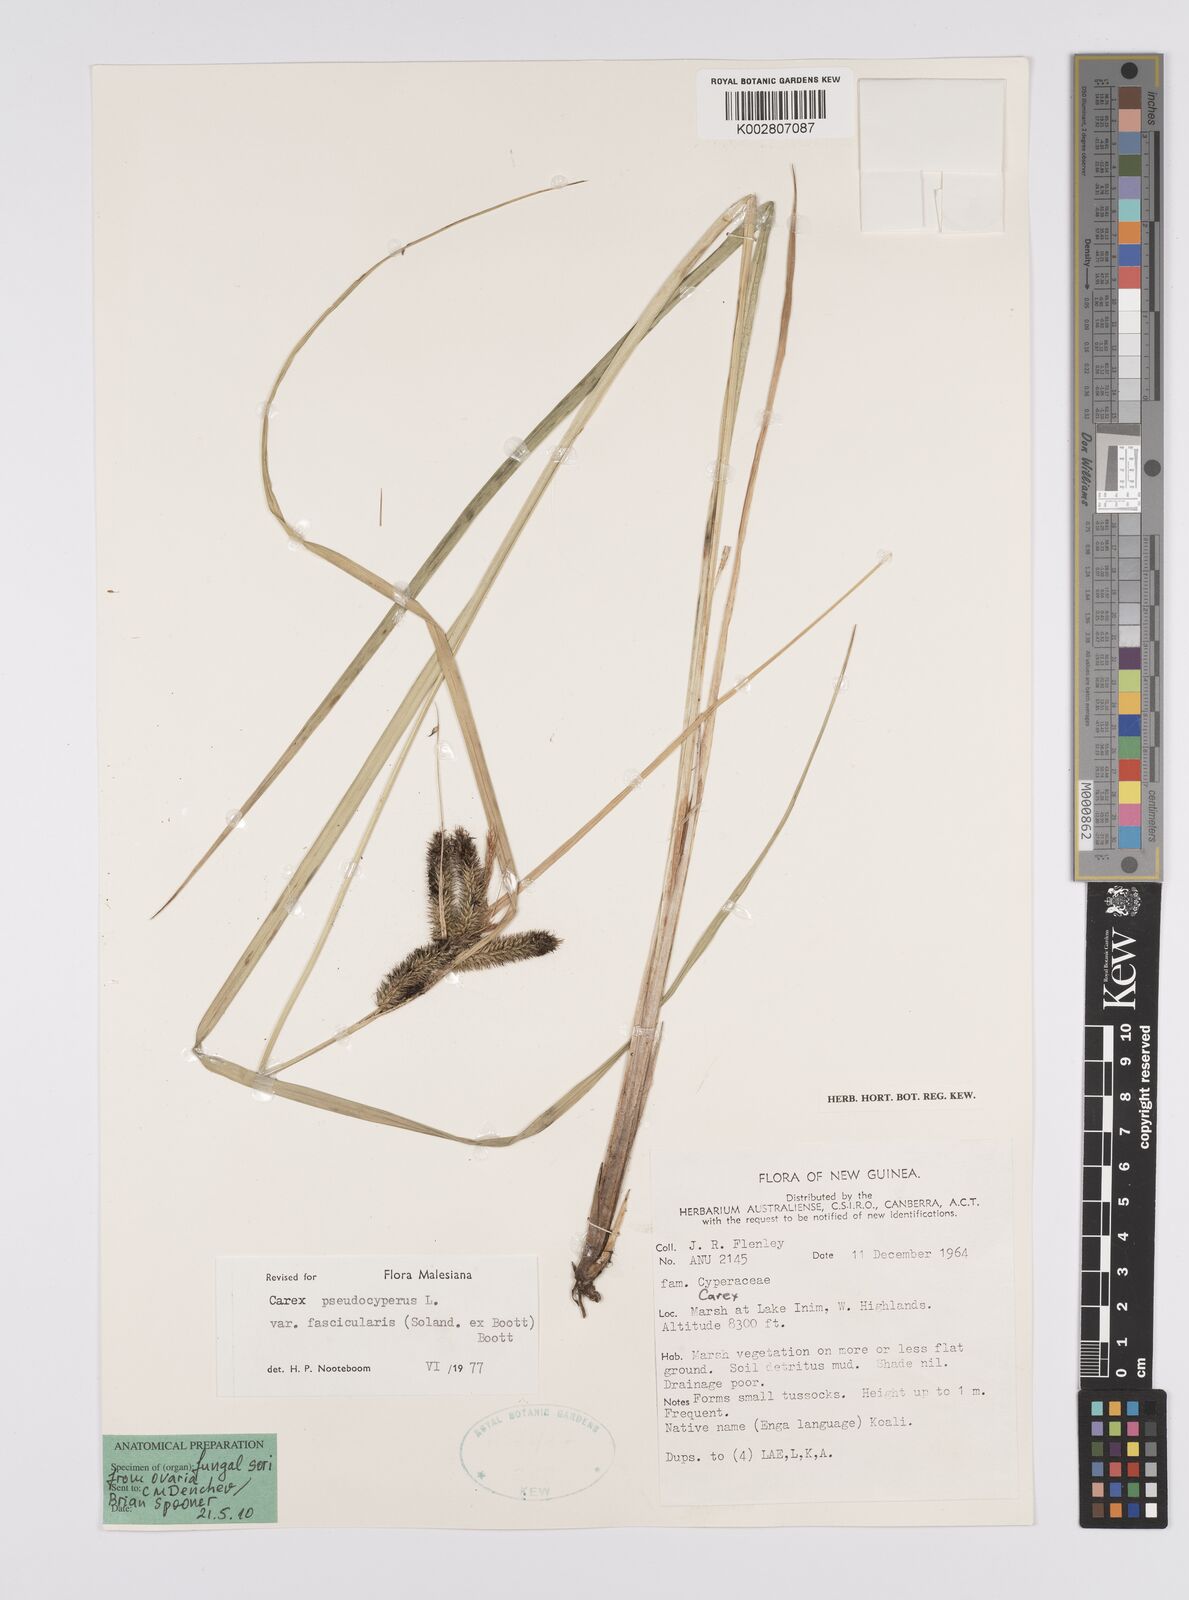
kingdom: Plantae
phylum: Tracheophyta
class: Liliopsida
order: Poales
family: Cyperaceae
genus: Carex
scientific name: Carex fascicularis
